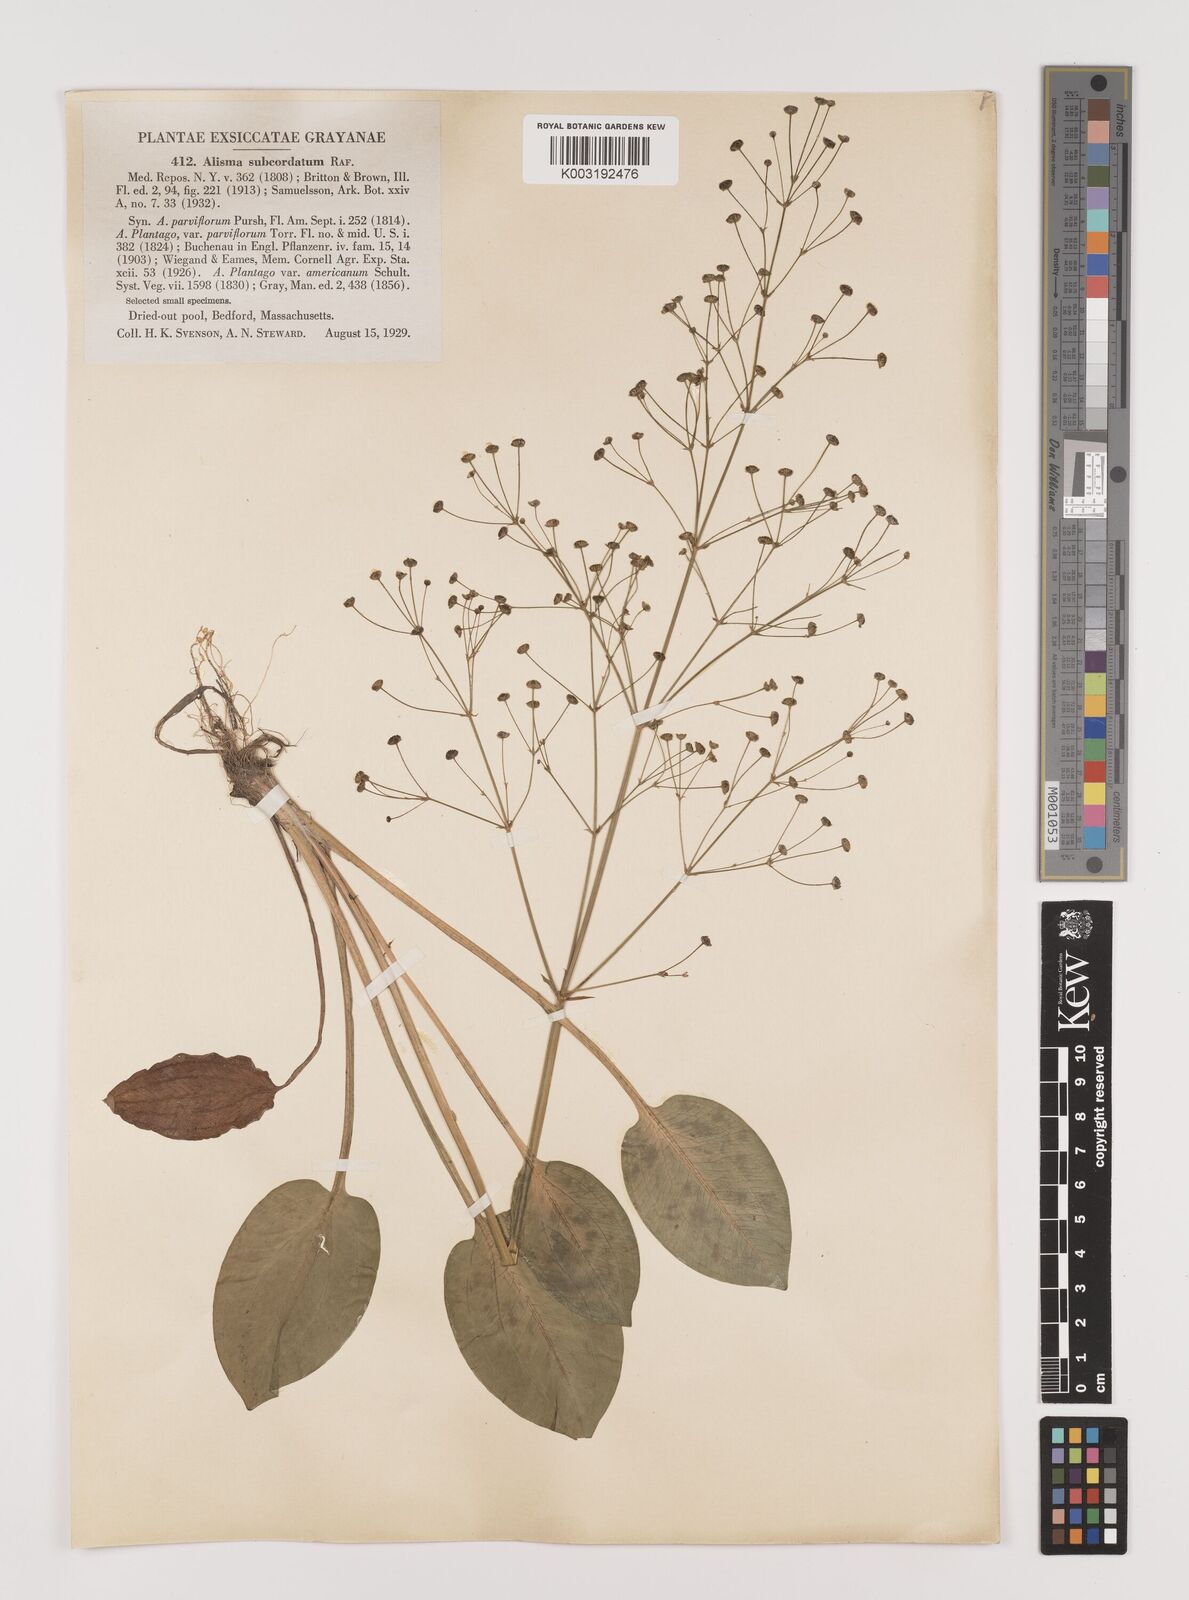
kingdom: Plantae
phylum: Tracheophyta
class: Liliopsida
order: Alismatales
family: Alismataceae
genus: Alisma
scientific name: Alisma subcordatum
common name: Southern water-plantain
